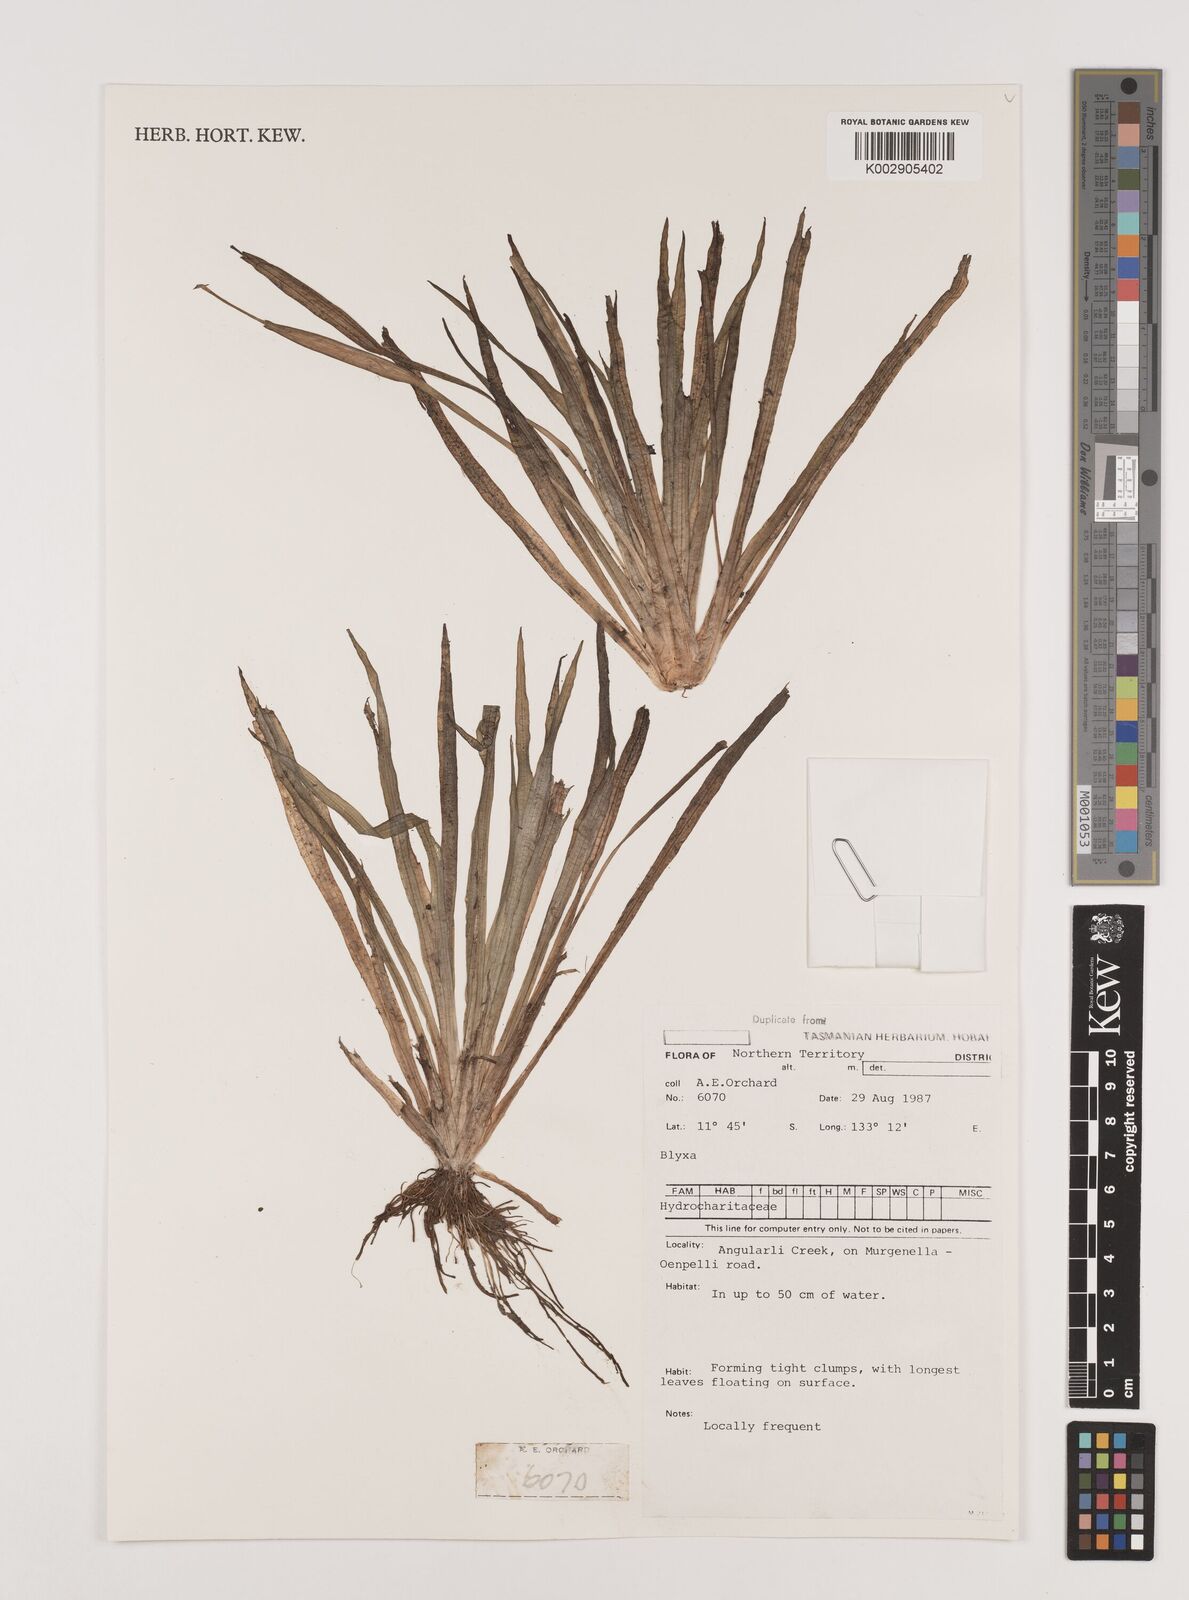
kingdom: Plantae
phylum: Tracheophyta
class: Liliopsida
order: Alismatales
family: Hydrocharitaceae
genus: Blyxa
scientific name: Blyxa
